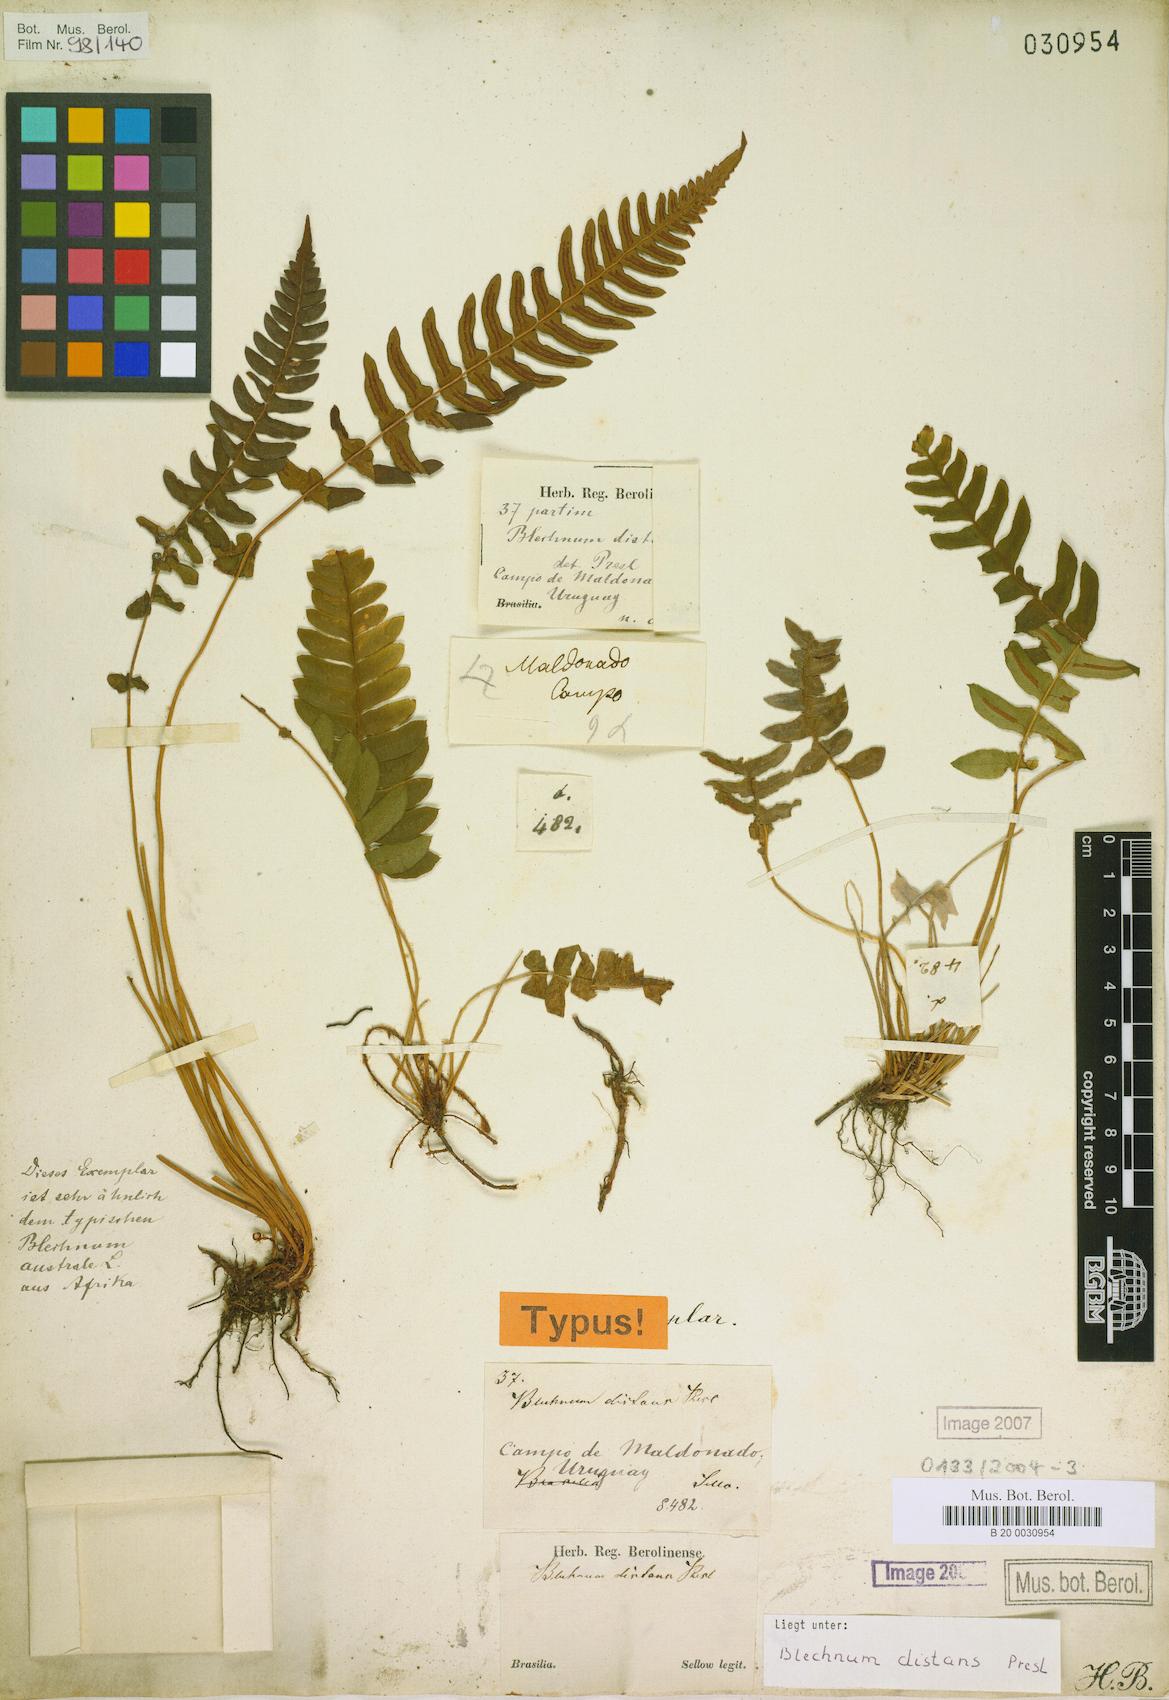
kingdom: Plantae
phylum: Tracheophyta
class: Polypodiopsida
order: Polypodiales
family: Blechnaceae
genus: Blechnum
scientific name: Blechnum laevigatum
